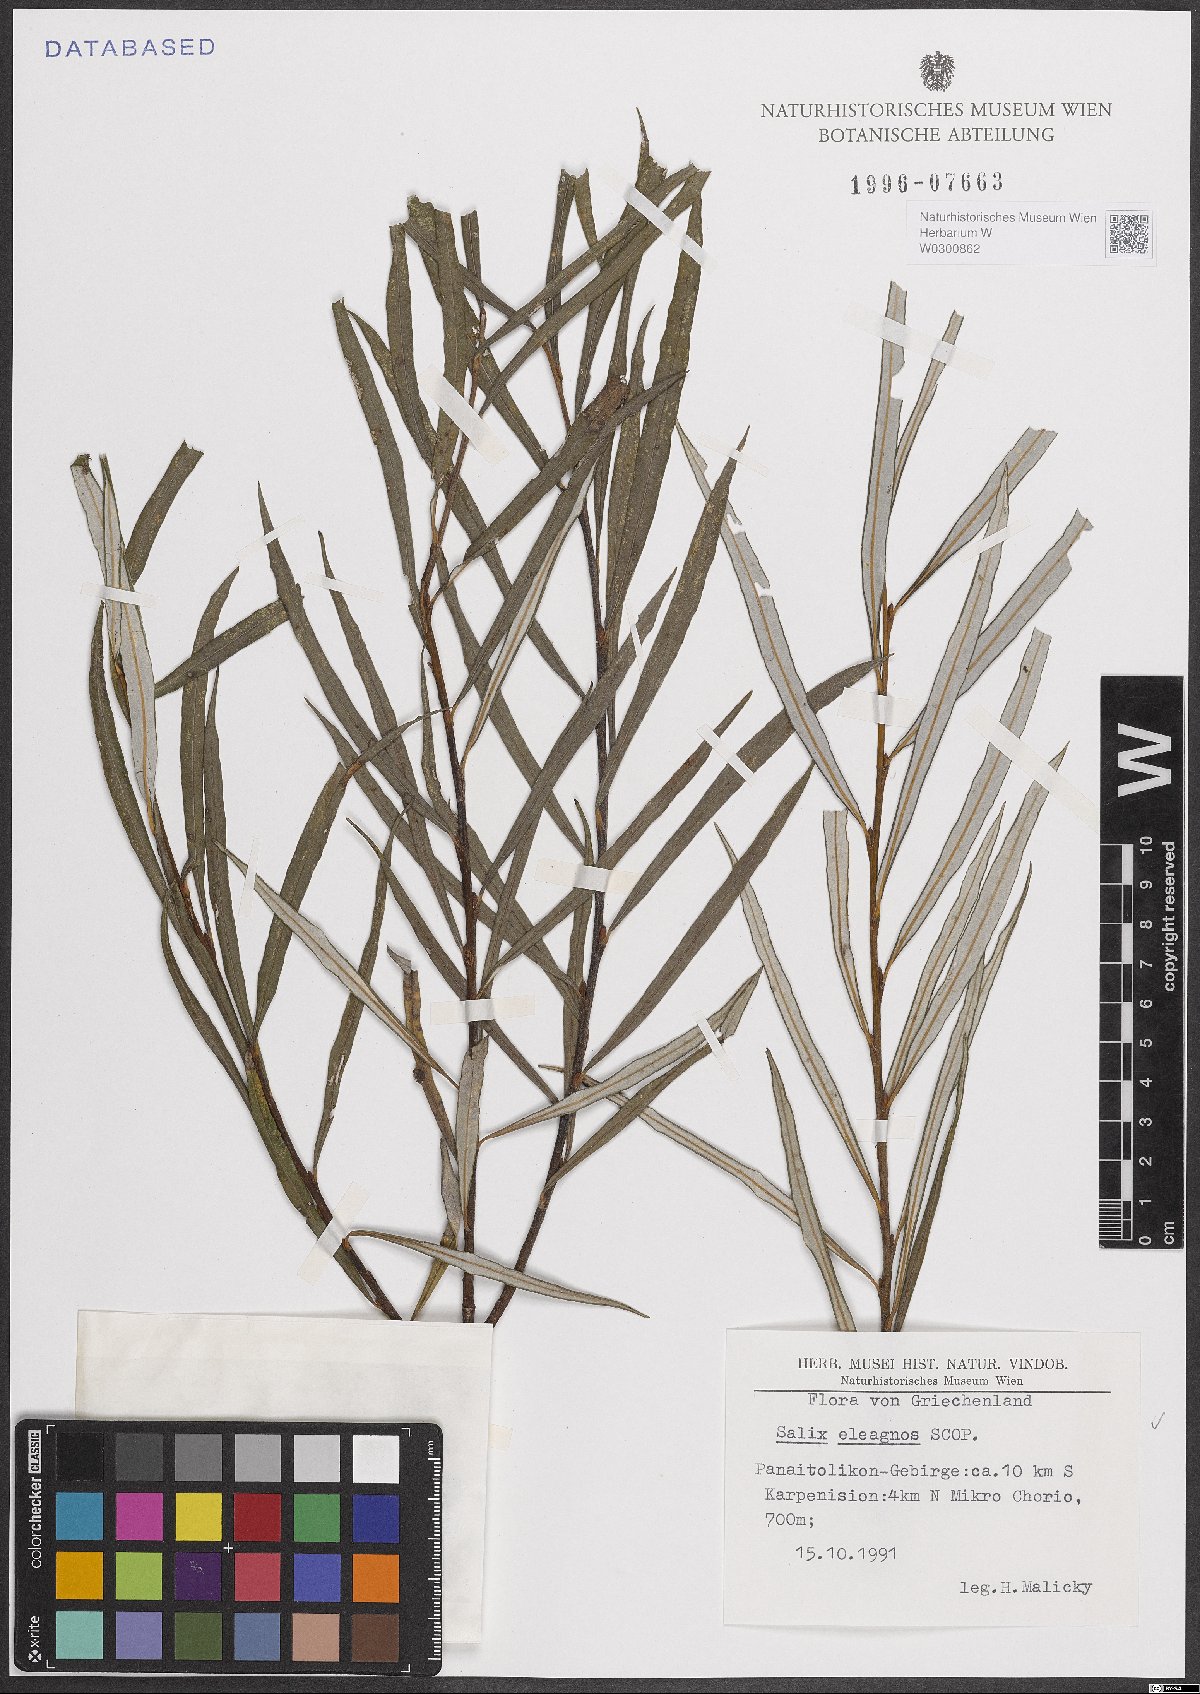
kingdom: Plantae
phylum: Tracheophyta
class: Magnoliopsida
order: Malpighiales
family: Salicaceae
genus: Salix
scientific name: Salix eleagnos
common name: Elaeagnus willow
